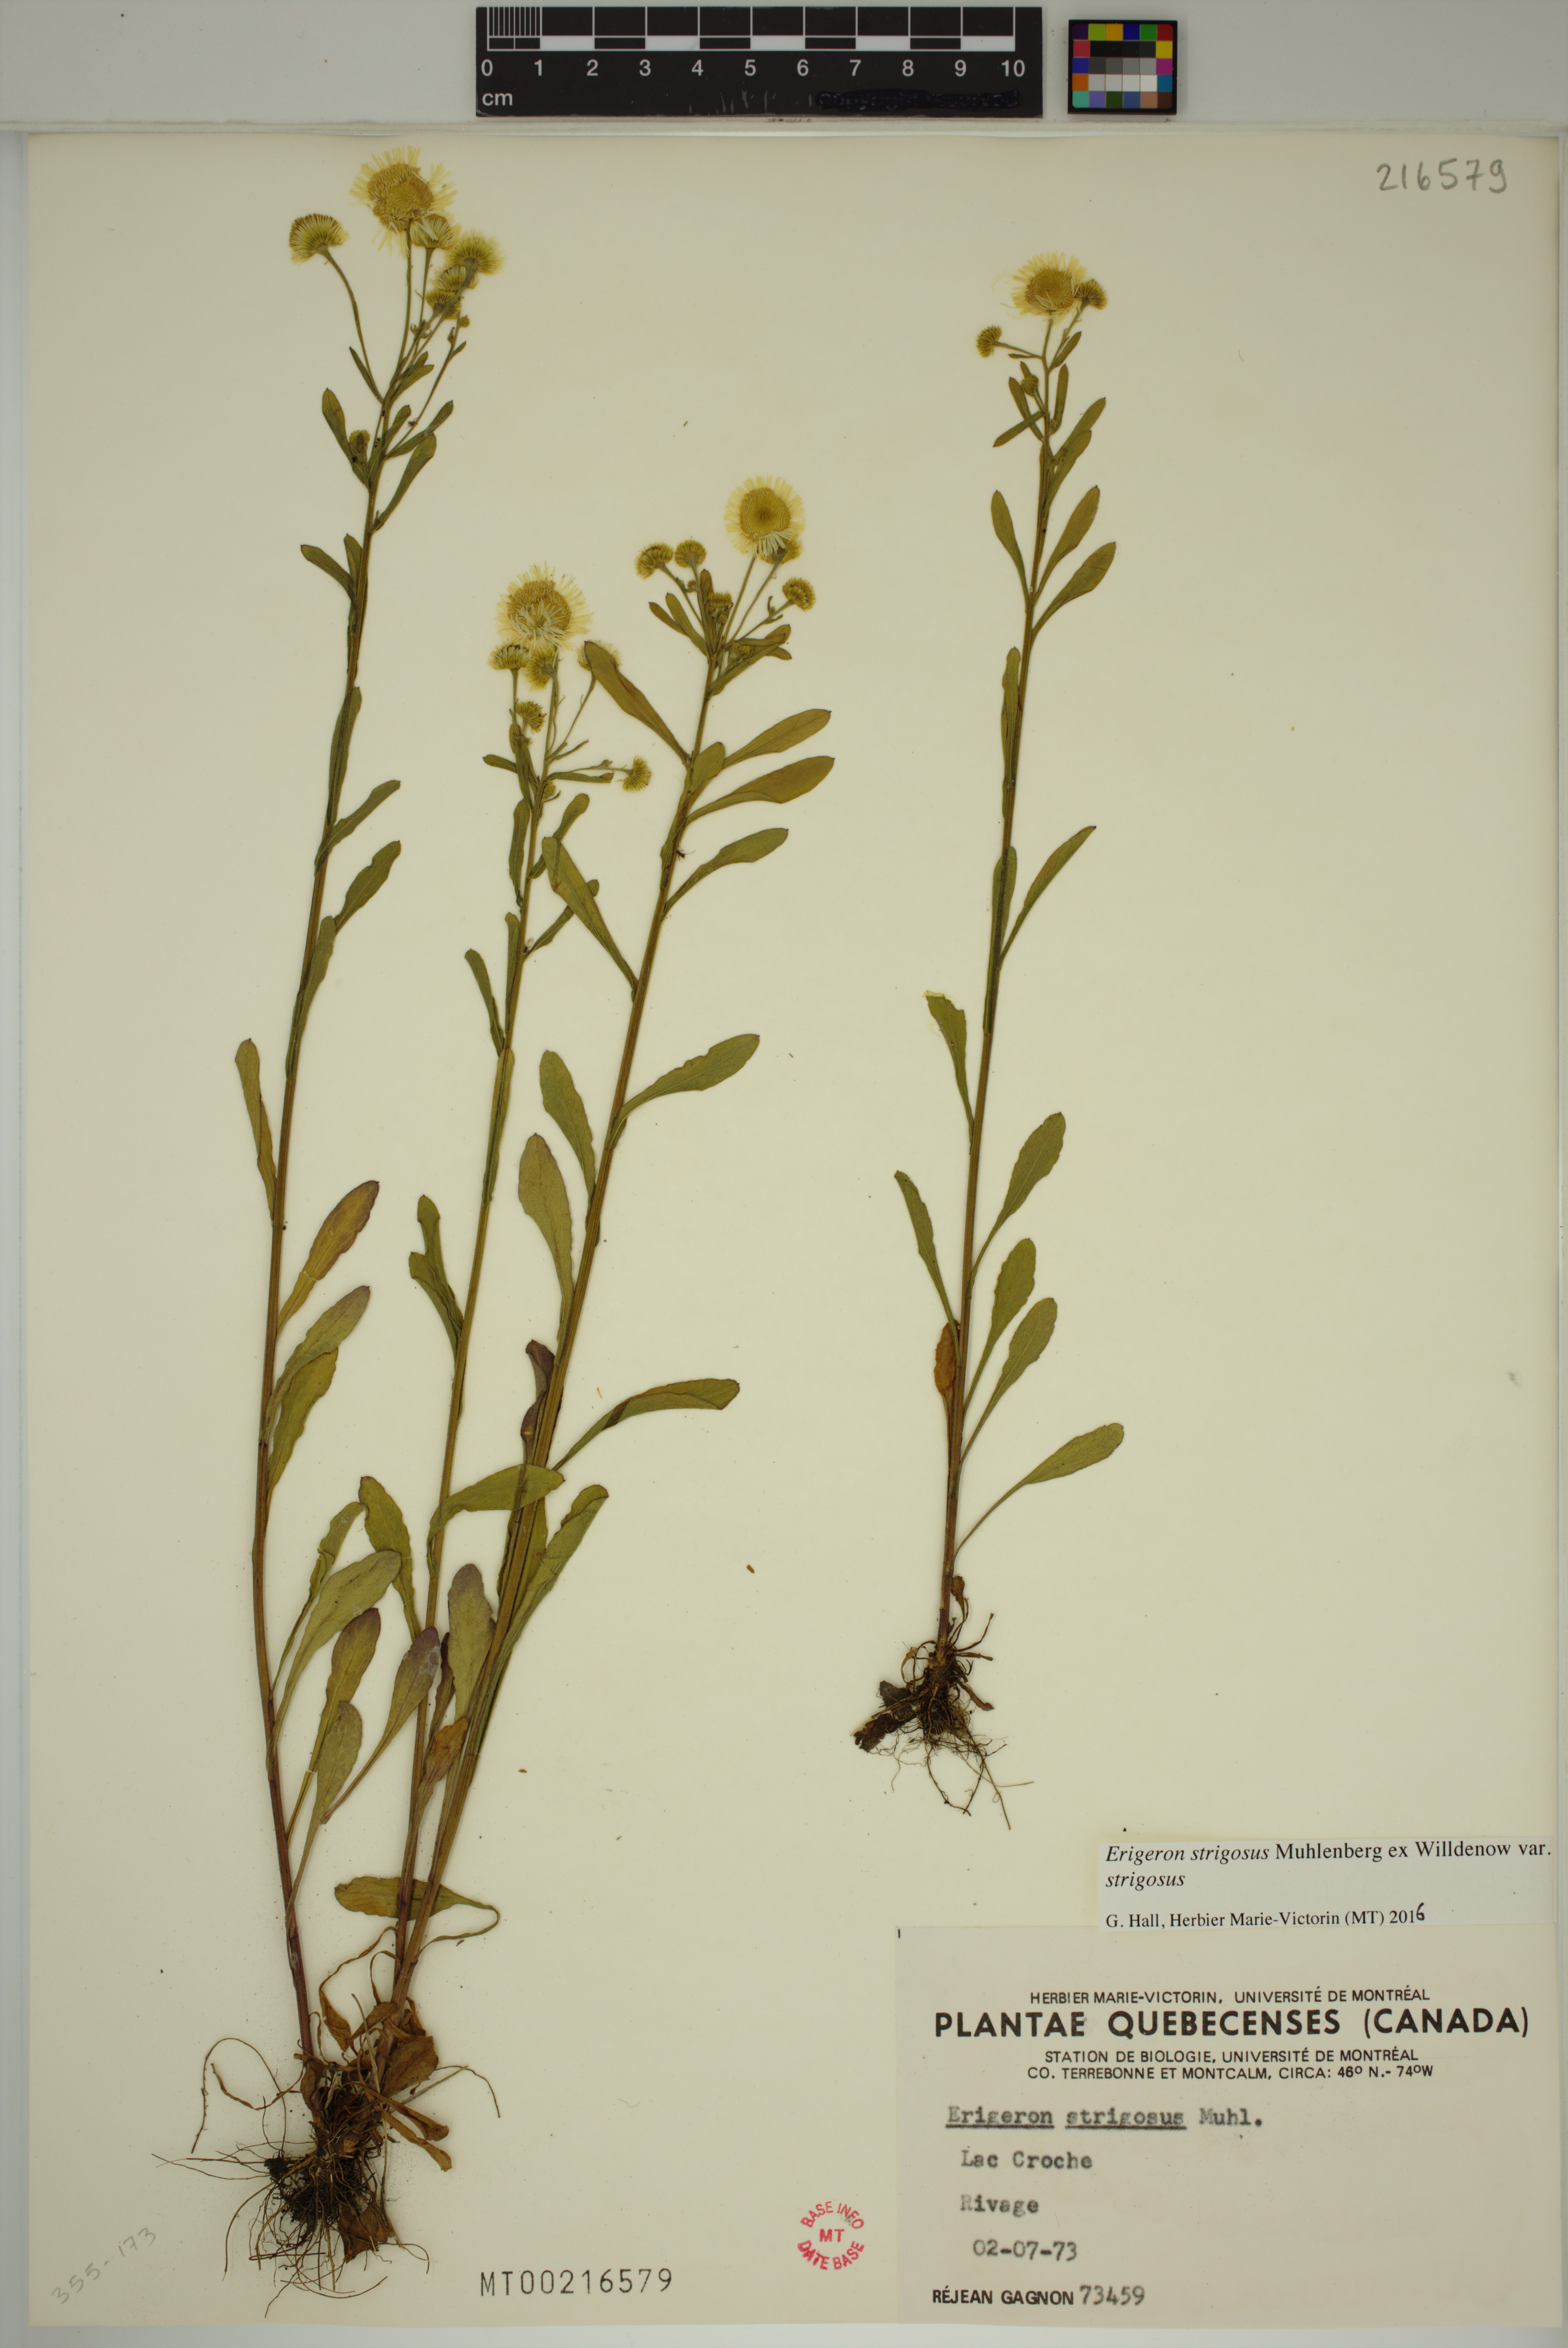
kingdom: Plantae
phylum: Tracheophyta
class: Magnoliopsida
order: Asterales
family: Asteraceae
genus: Erigeron
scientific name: Erigeron strigosus
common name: Common eastern fleabane
